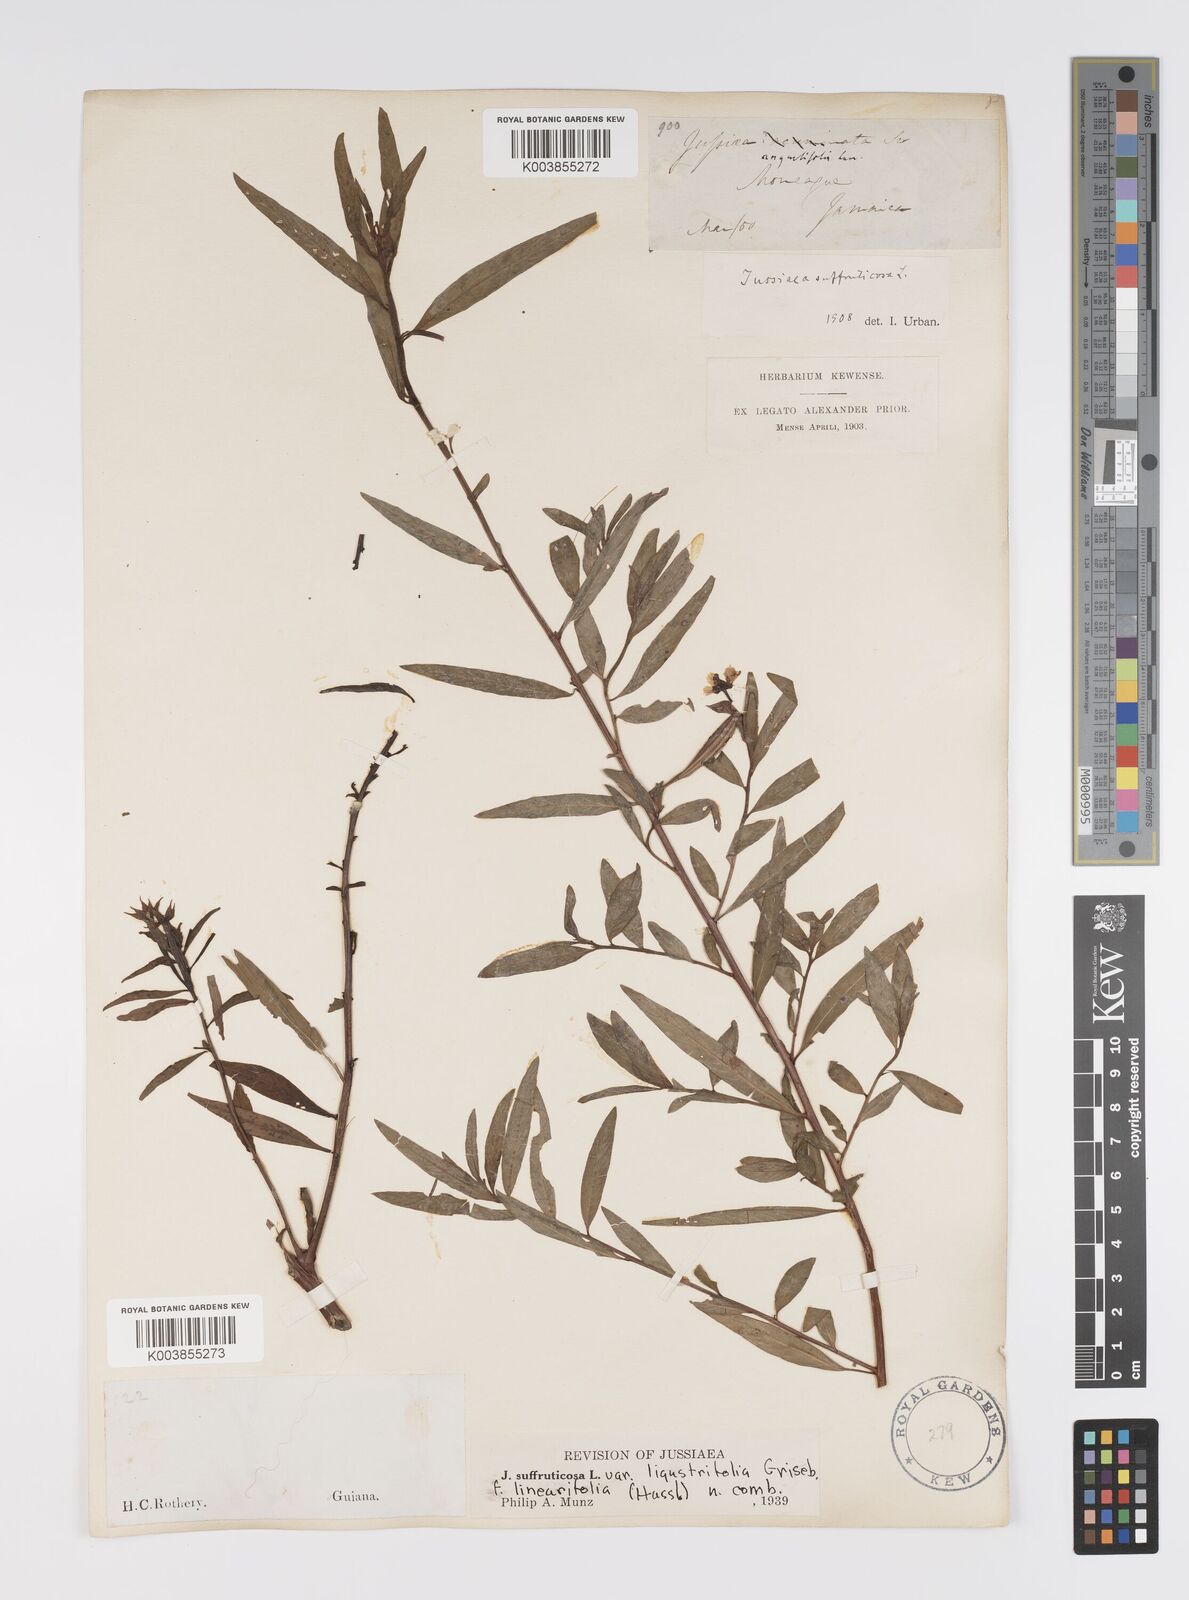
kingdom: Plantae
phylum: Tracheophyta
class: Magnoliopsida
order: Myrtales
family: Onagraceae
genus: Ludwigia
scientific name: Ludwigia octovalvis
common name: Water-primrose
